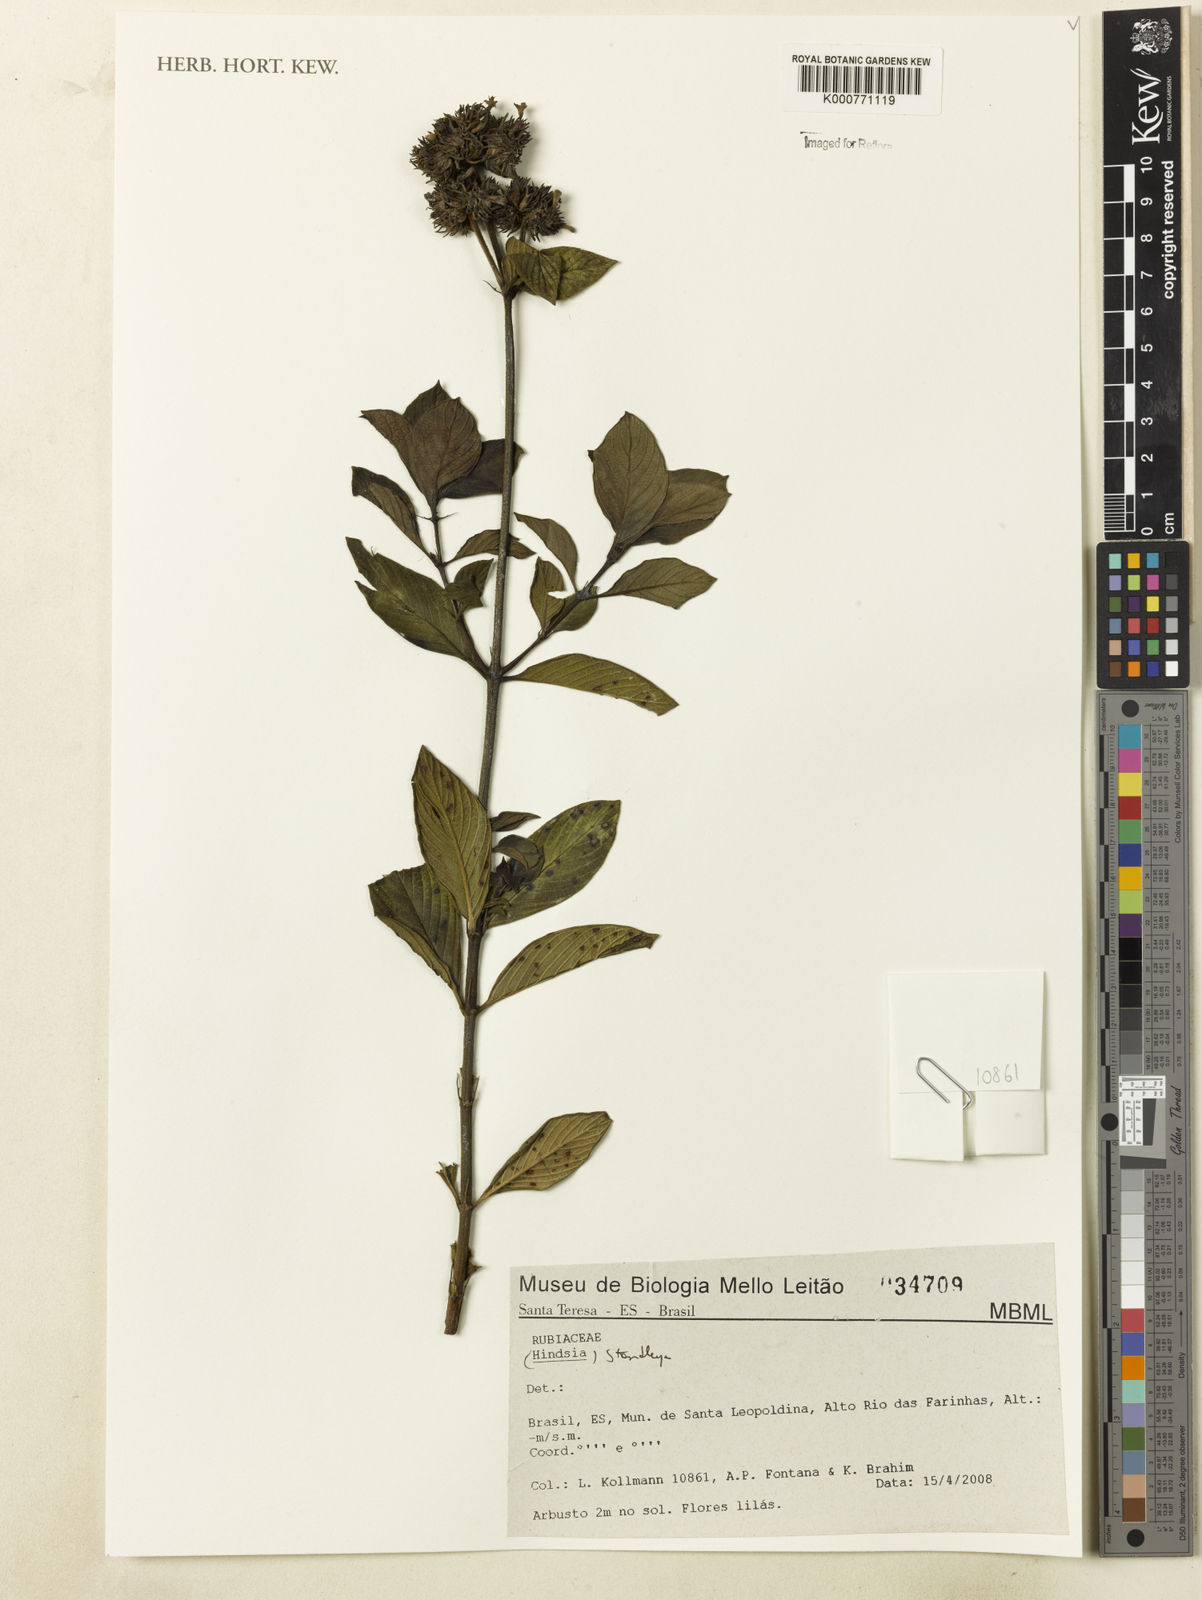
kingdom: Plantae
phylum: Tracheophyta
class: Magnoliopsida
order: Gentianales
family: Rubiaceae
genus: Standleya
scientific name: Standleya
